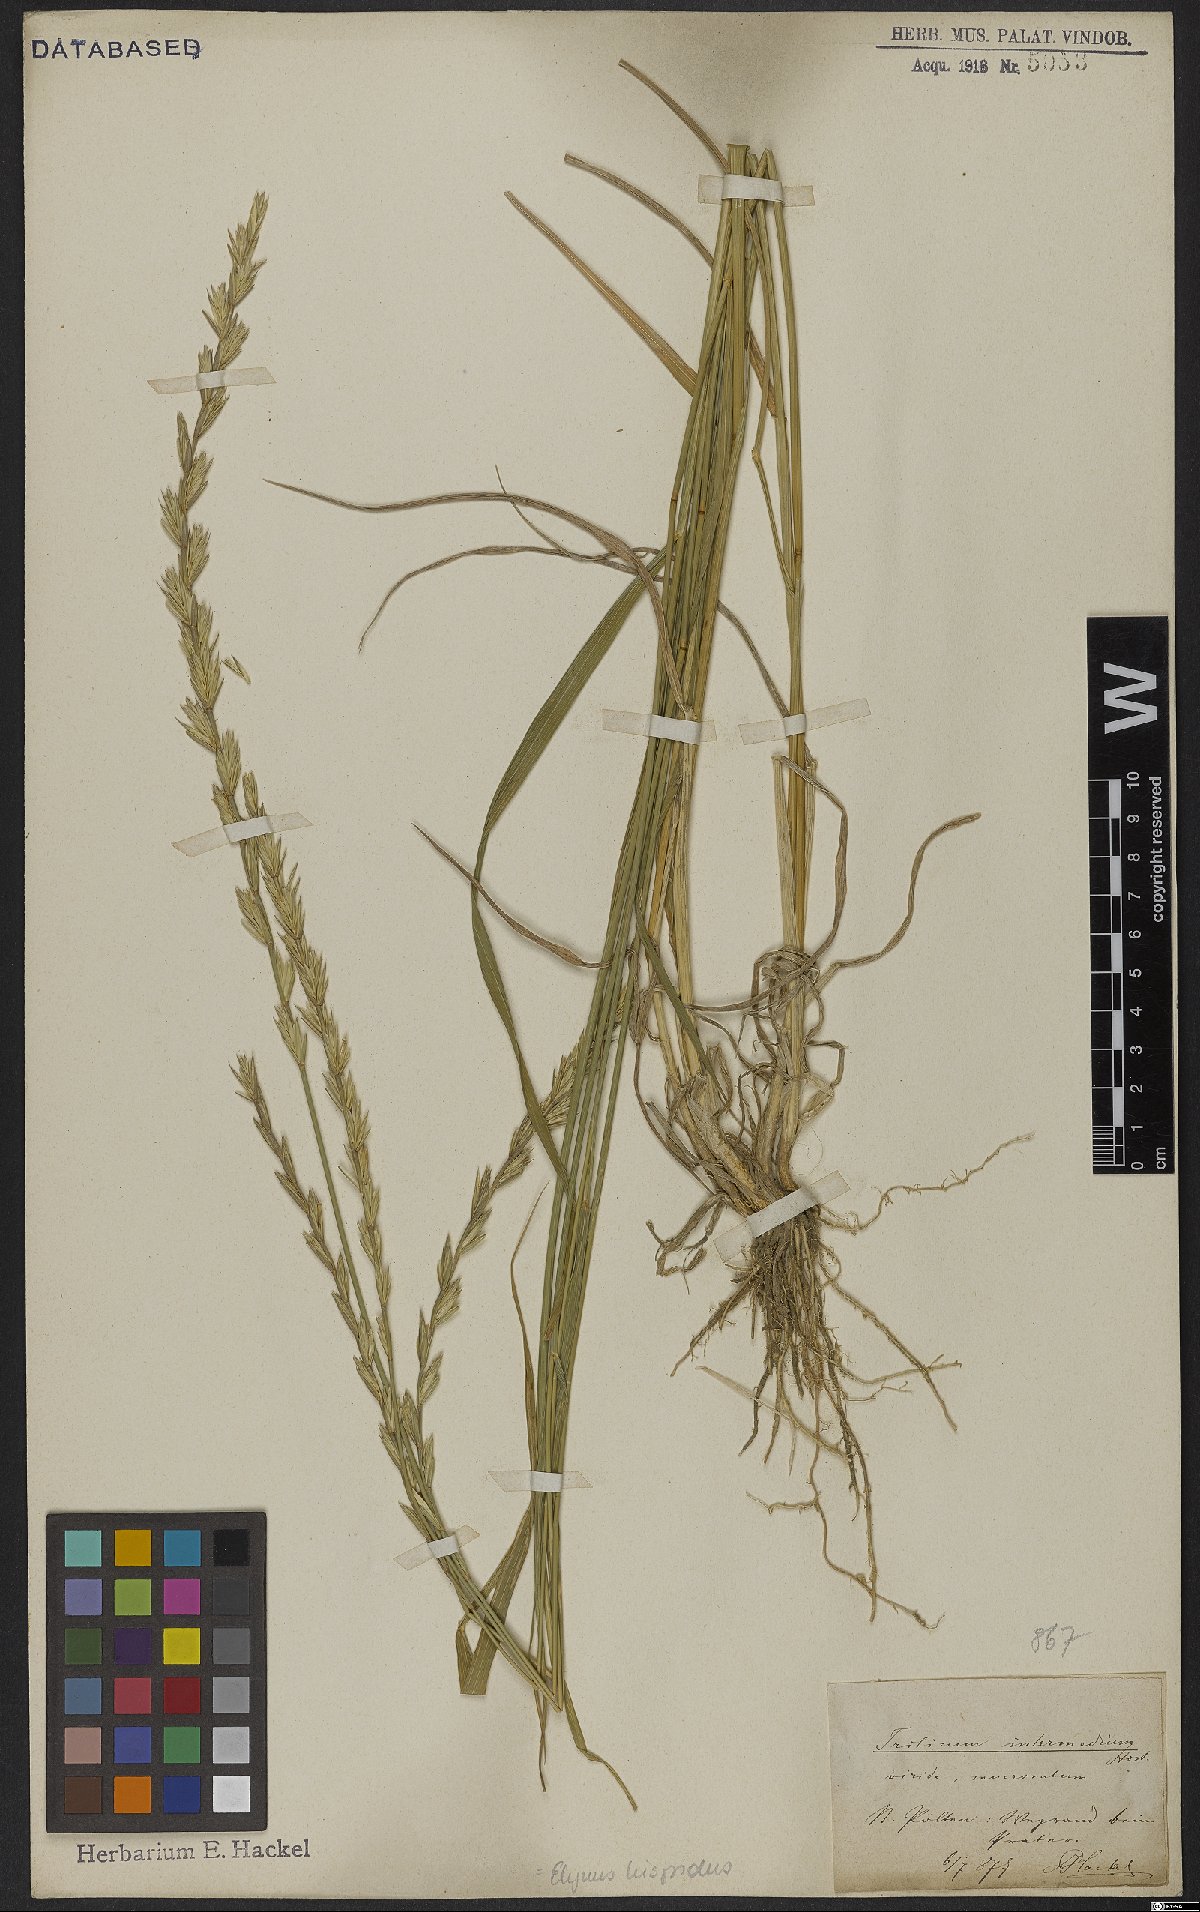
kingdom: Plantae
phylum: Tracheophyta
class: Liliopsida
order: Poales
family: Poaceae
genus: Thinopyrum
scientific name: Thinopyrum intermedium
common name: Intermediate wheatgrass
